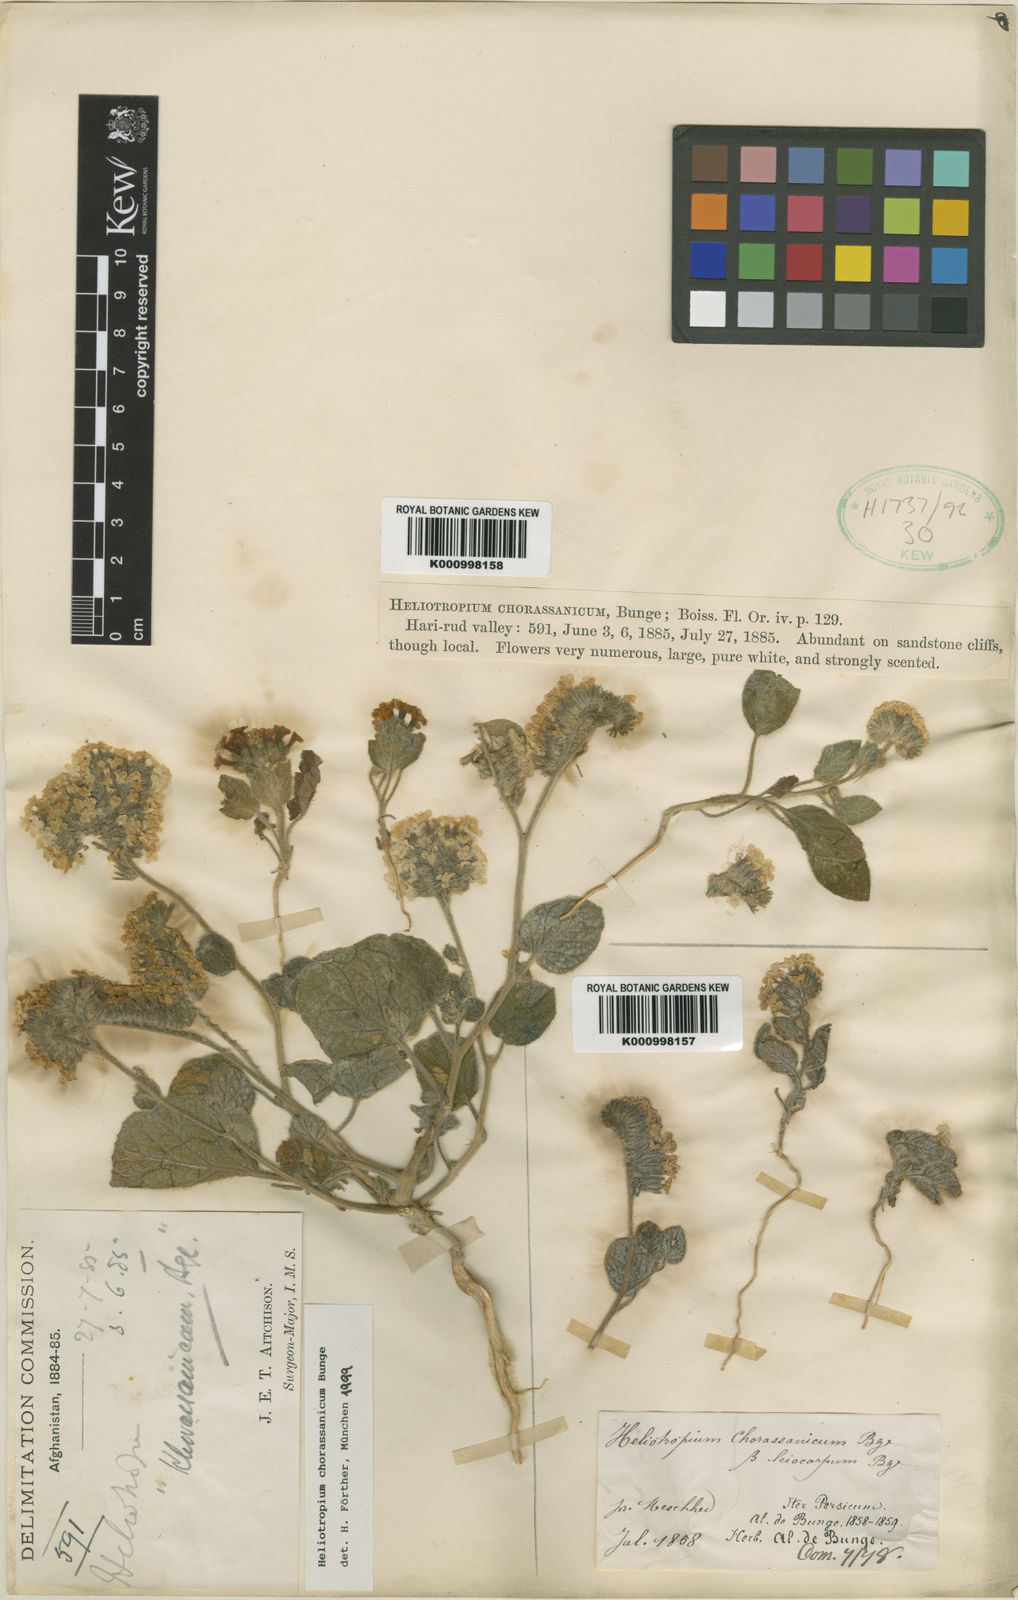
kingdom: Plantae
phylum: Tracheophyta
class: Magnoliopsida
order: Boraginales
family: Heliotropiaceae
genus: Heliotropium
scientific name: Heliotropium chorassanicum
